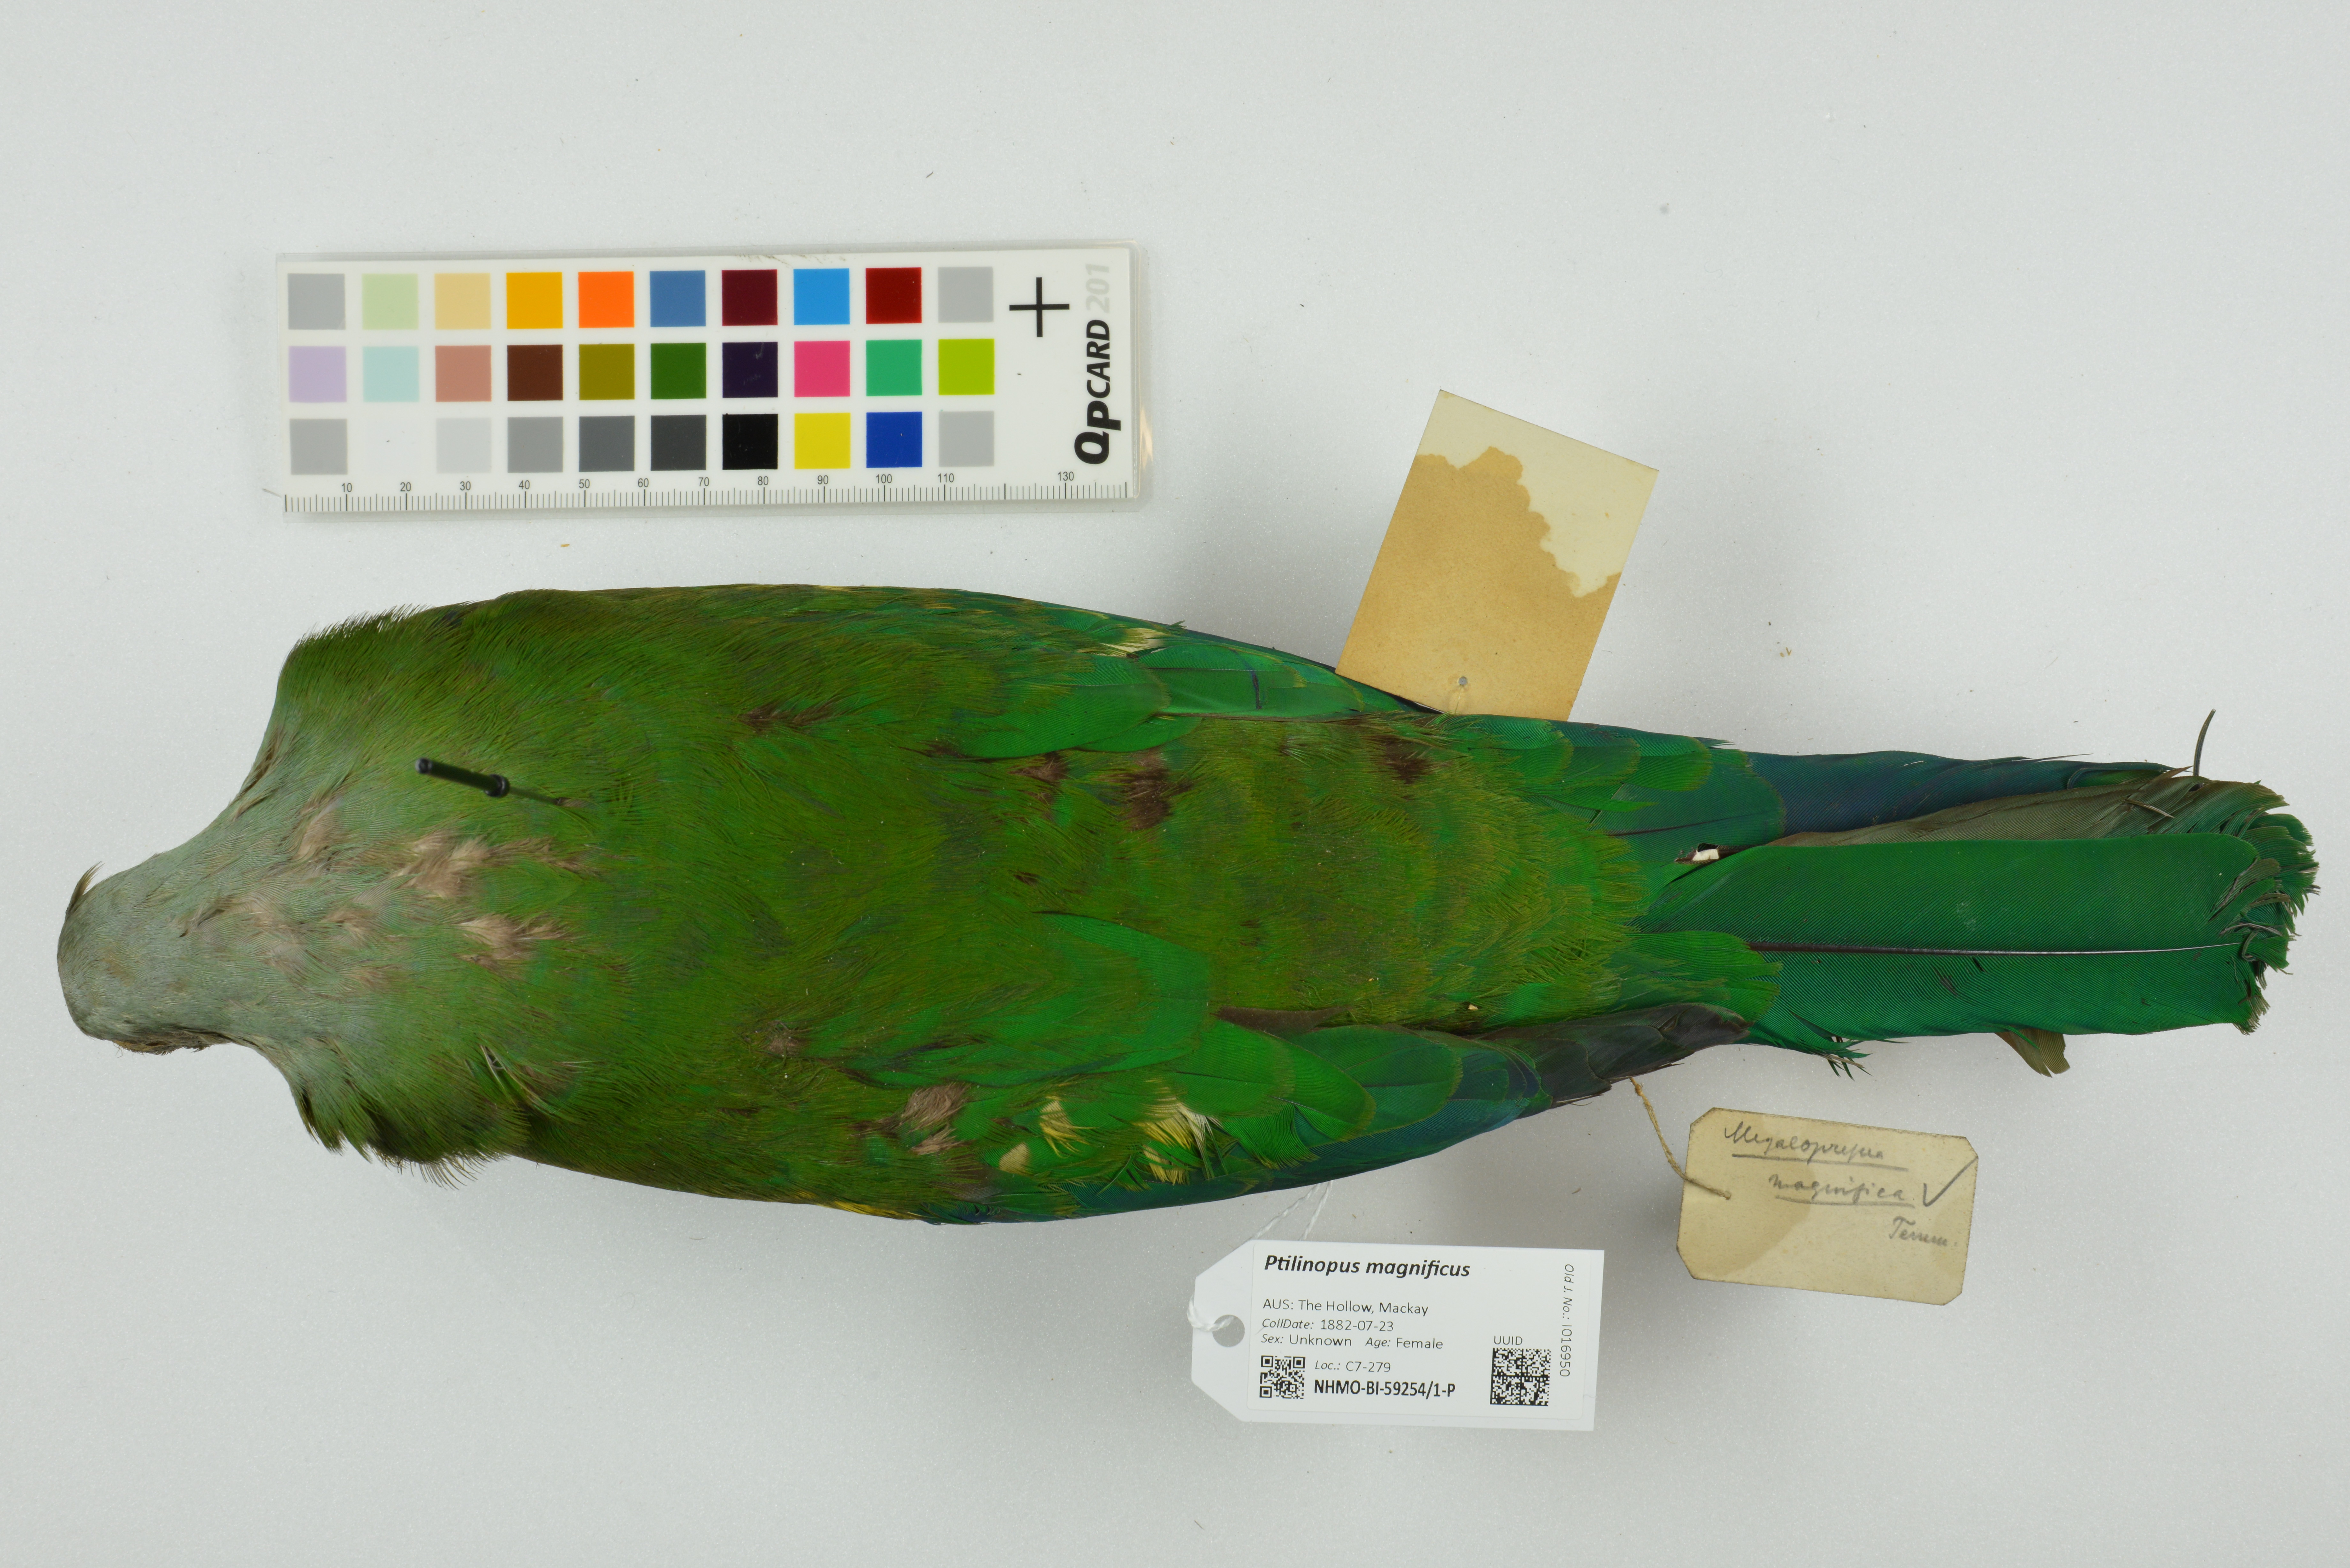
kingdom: Animalia
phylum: Chordata
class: Aves
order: Columbiformes
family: Columbidae
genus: Ptilinopus
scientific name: Ptilinopus magnificus
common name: Wompoo fruit dove
